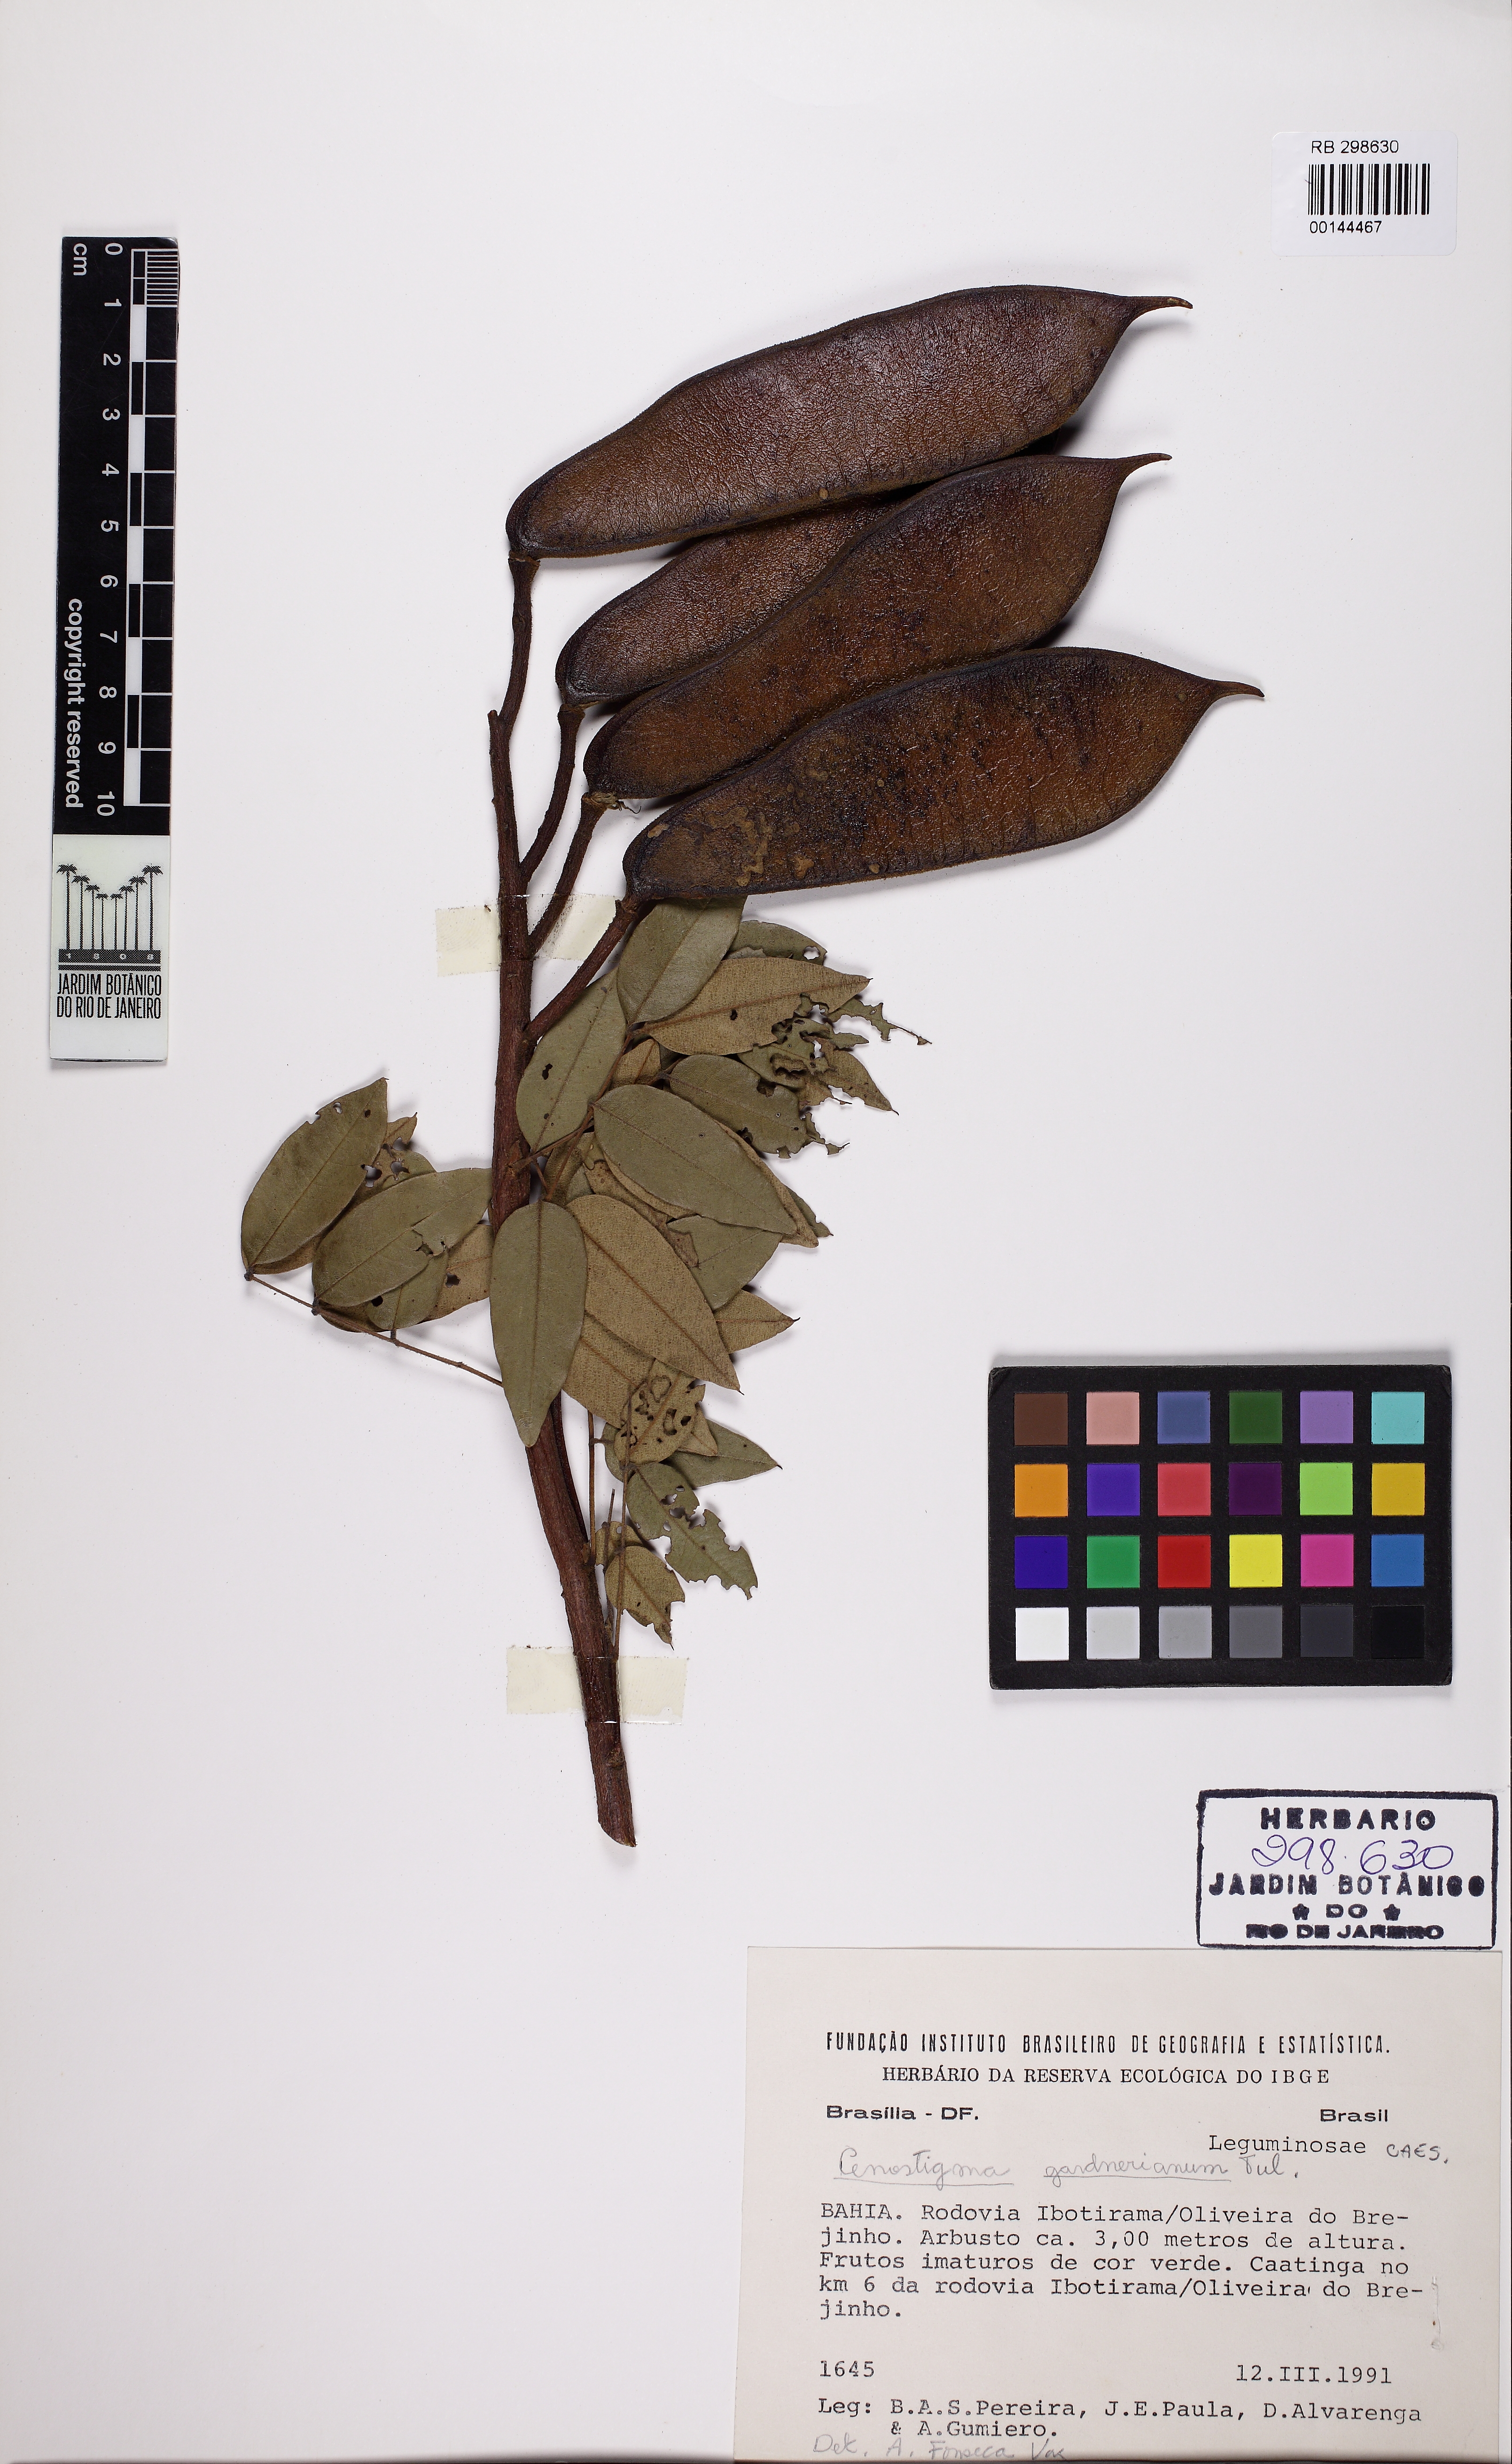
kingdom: Plantae
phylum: Tracheophyta
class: Magnoliopsida
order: Fabales
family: Fabaceae
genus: Cenostigma
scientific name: Cenostigma macrophyllum
